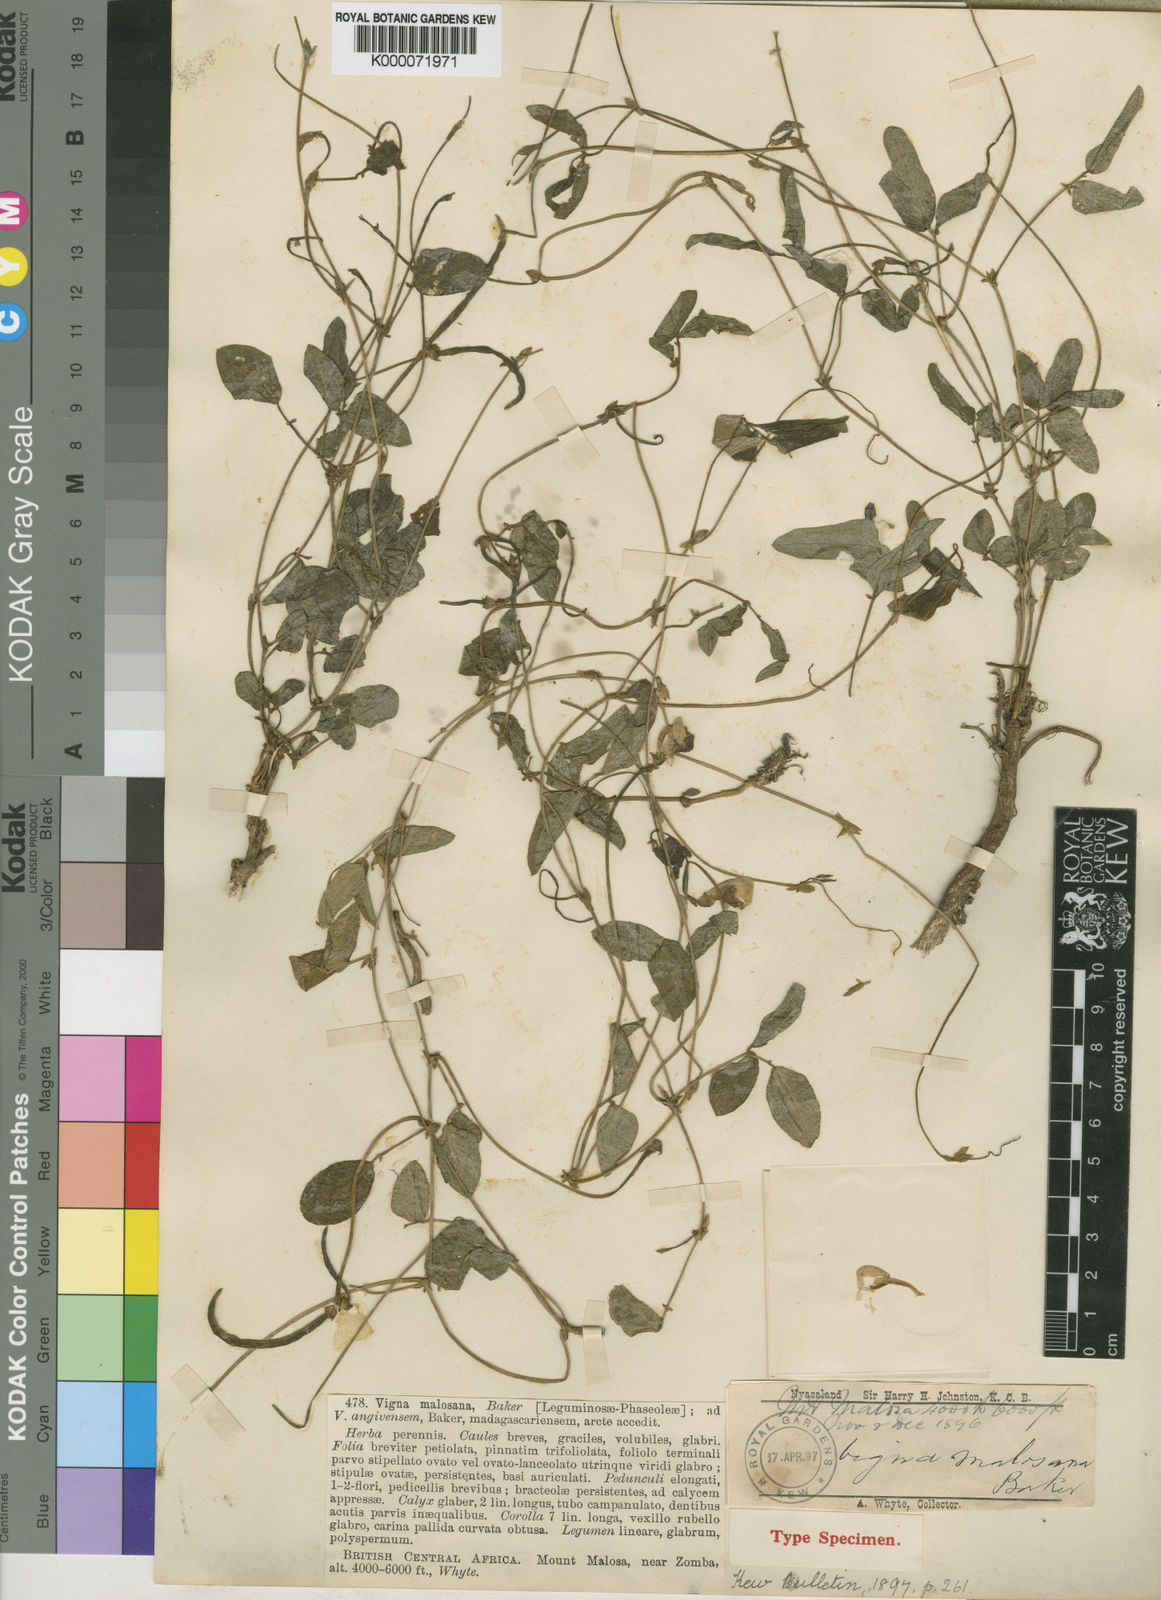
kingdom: Plantae
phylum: Tracheophyta
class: Magnoliopsida
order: Fabales
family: Fabaceae
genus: Vigna
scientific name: Vigna unguiculata
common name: Cowpea
